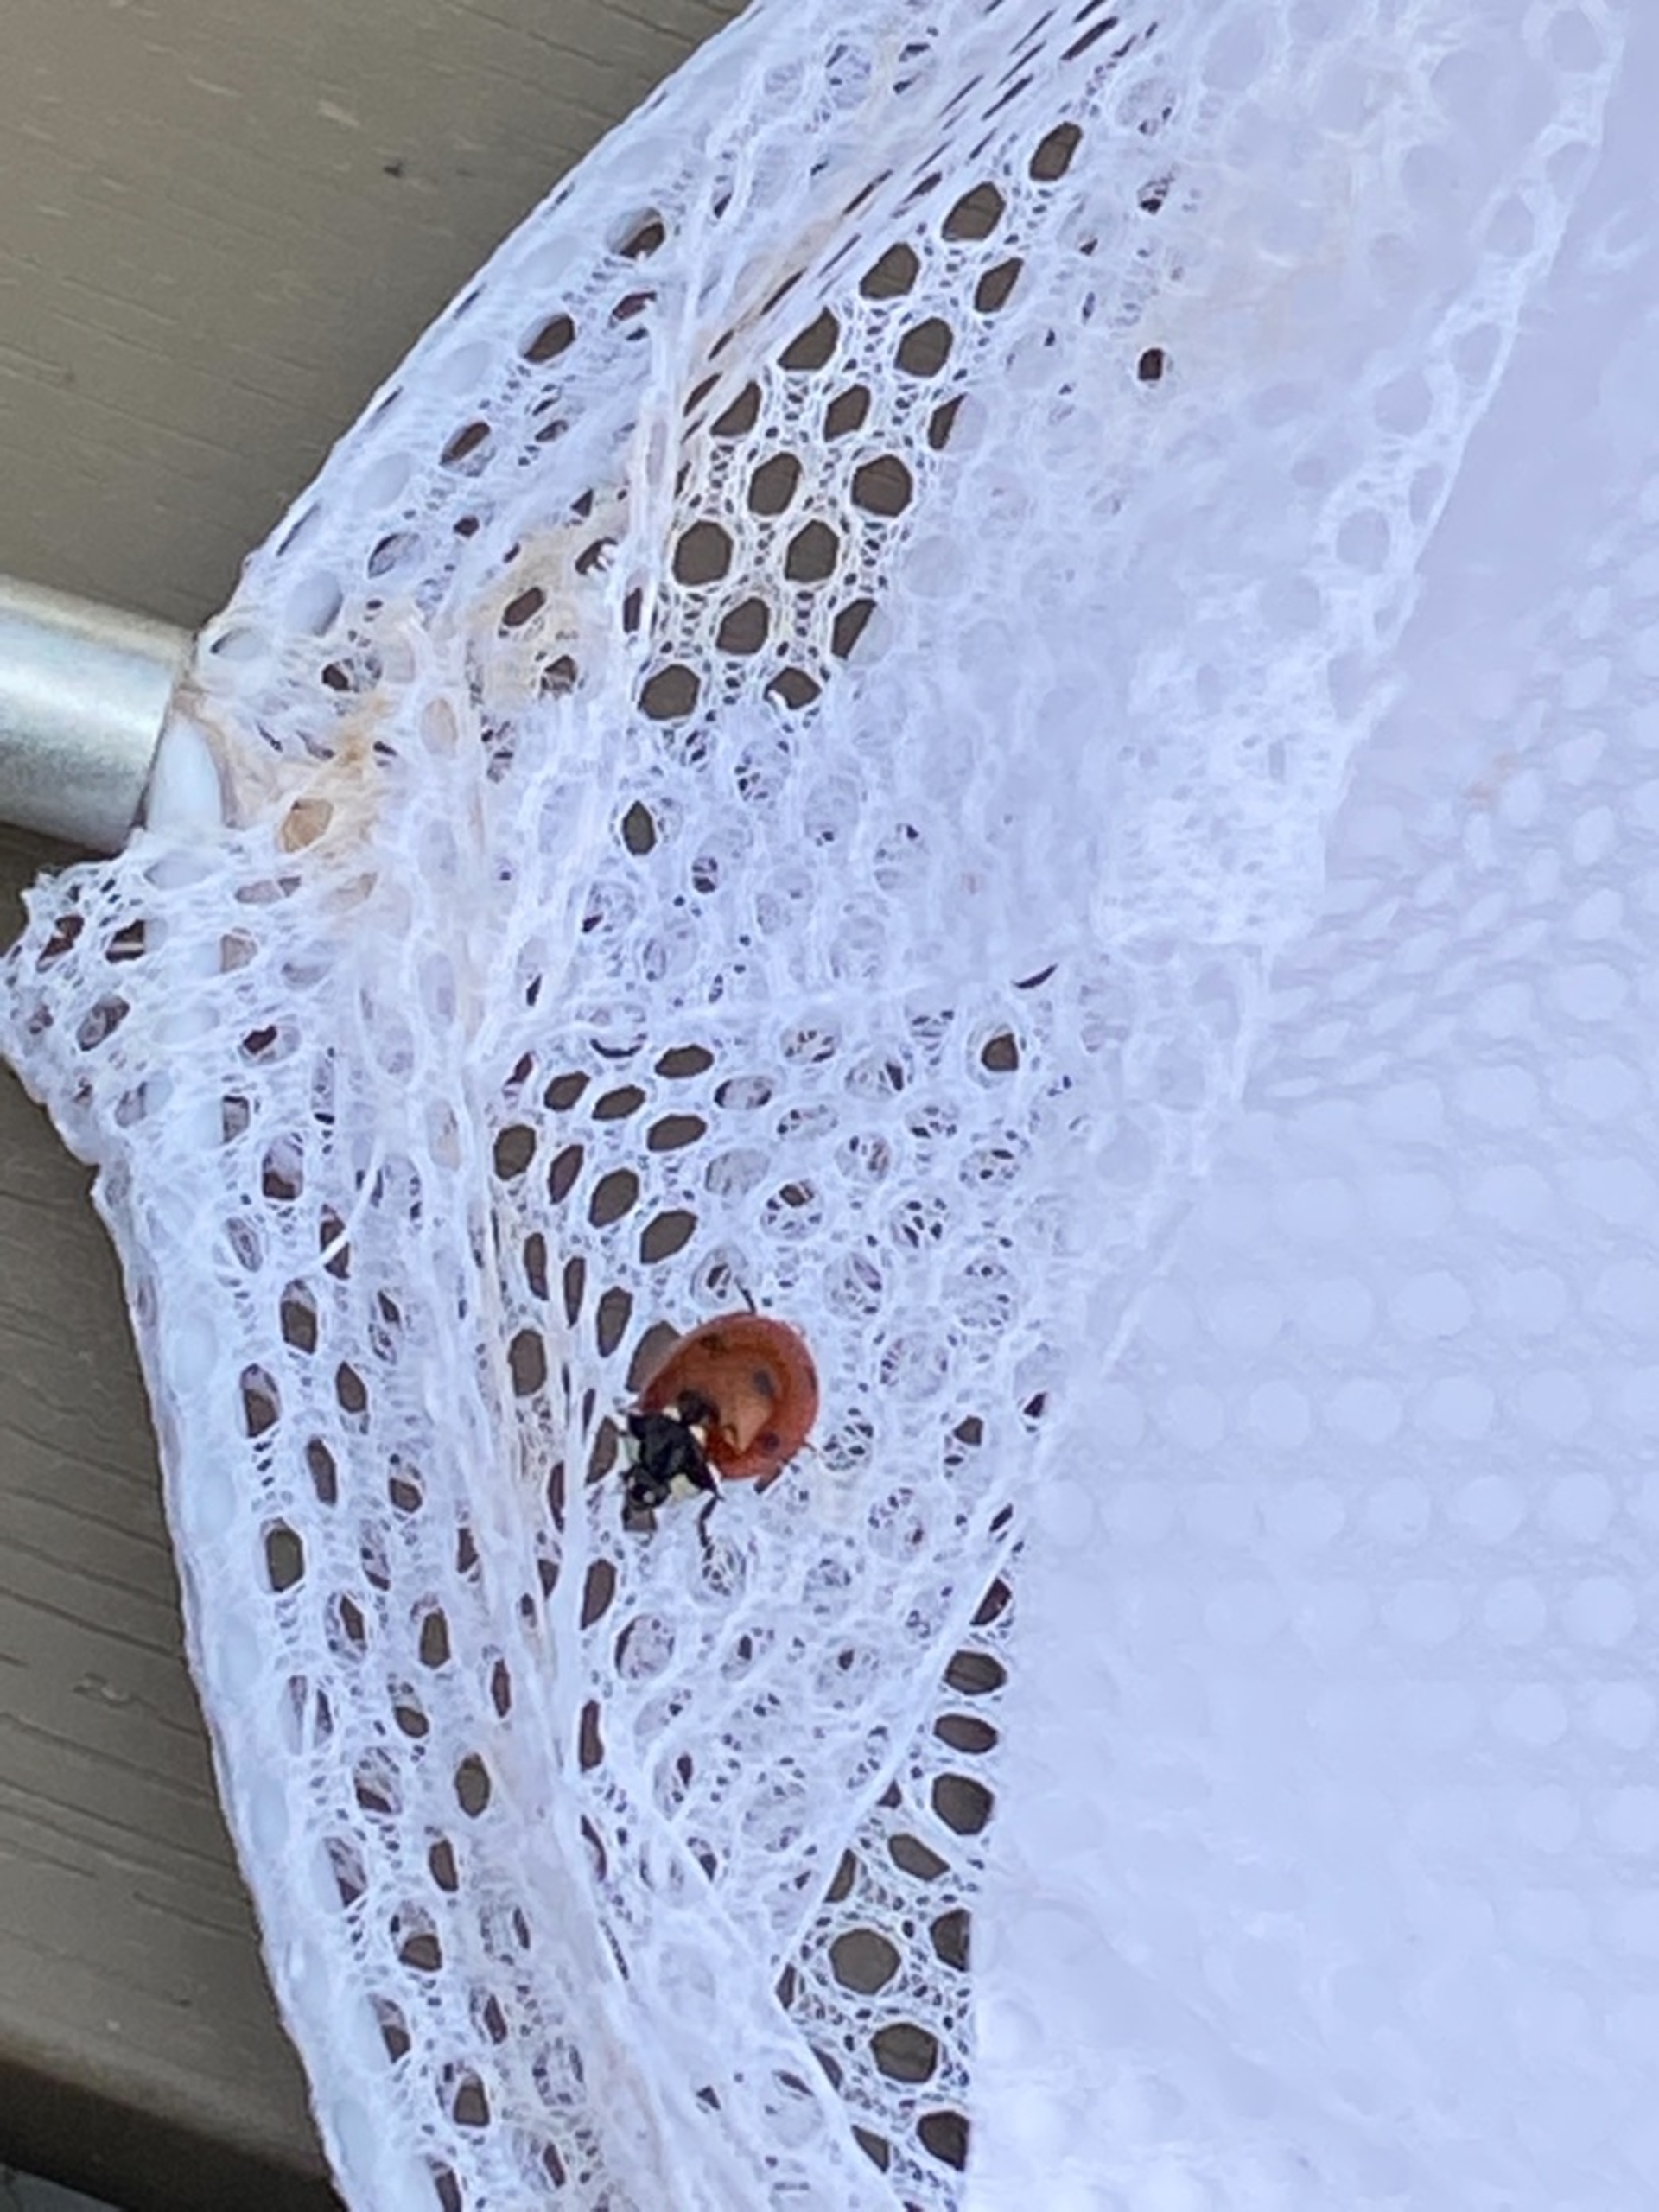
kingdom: Animalia
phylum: Arthropoda
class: Insecta
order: Coleoptera
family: Coccinellidae
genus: Coccinella
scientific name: Coccinella septempunctata
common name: Syvplettet mariehøne
